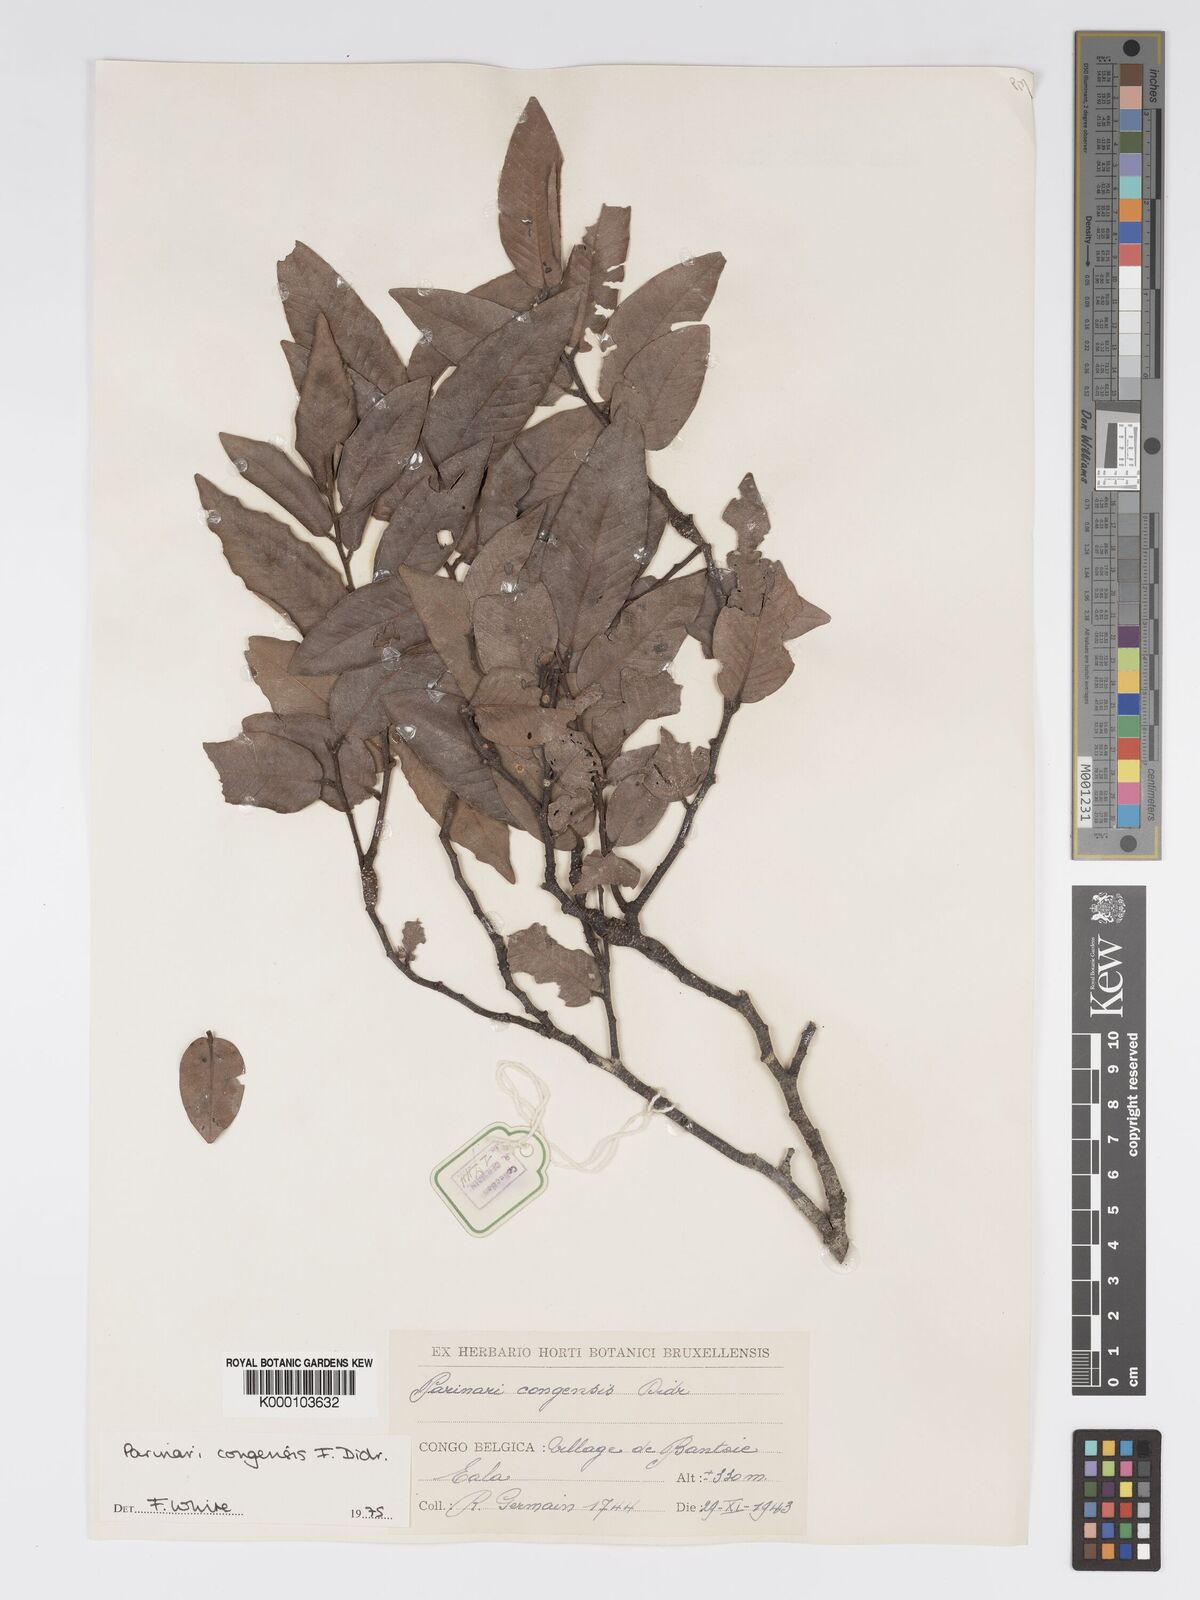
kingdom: Plantae
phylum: Tracheophyta
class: Magnoliopsida
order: Malpighiales
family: Chrysobalanaceae
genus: Parinari
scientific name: Parinari congensis
